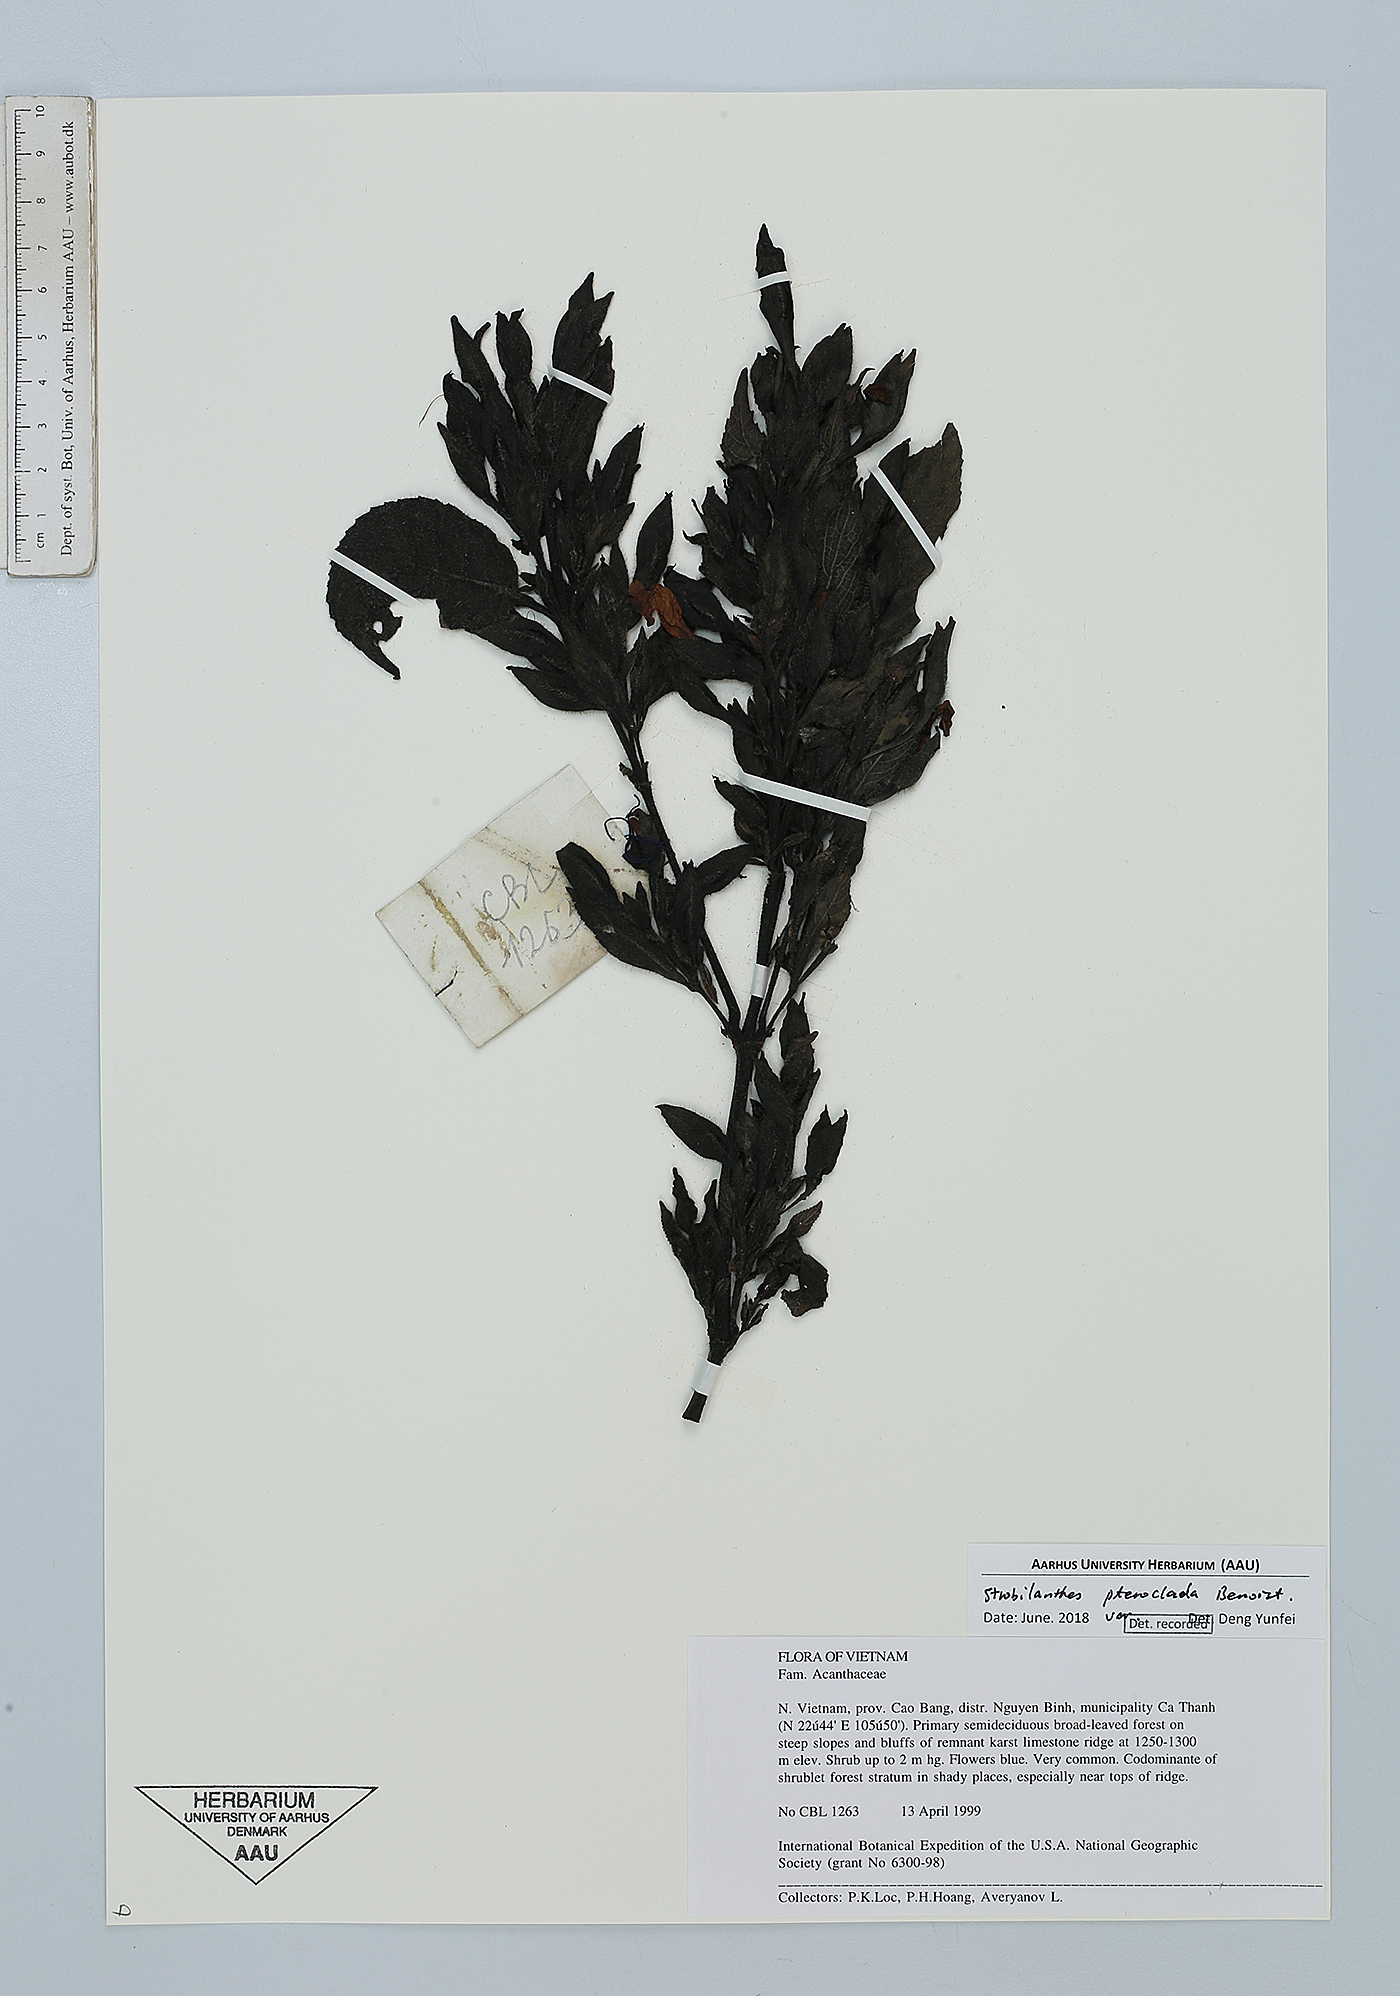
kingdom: Plantae
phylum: Tracheophyta
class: Magnoliopsida
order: Lamiales
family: Acanthaceae
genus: Strobilanthes
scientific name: Strobilanthes pteroclada
